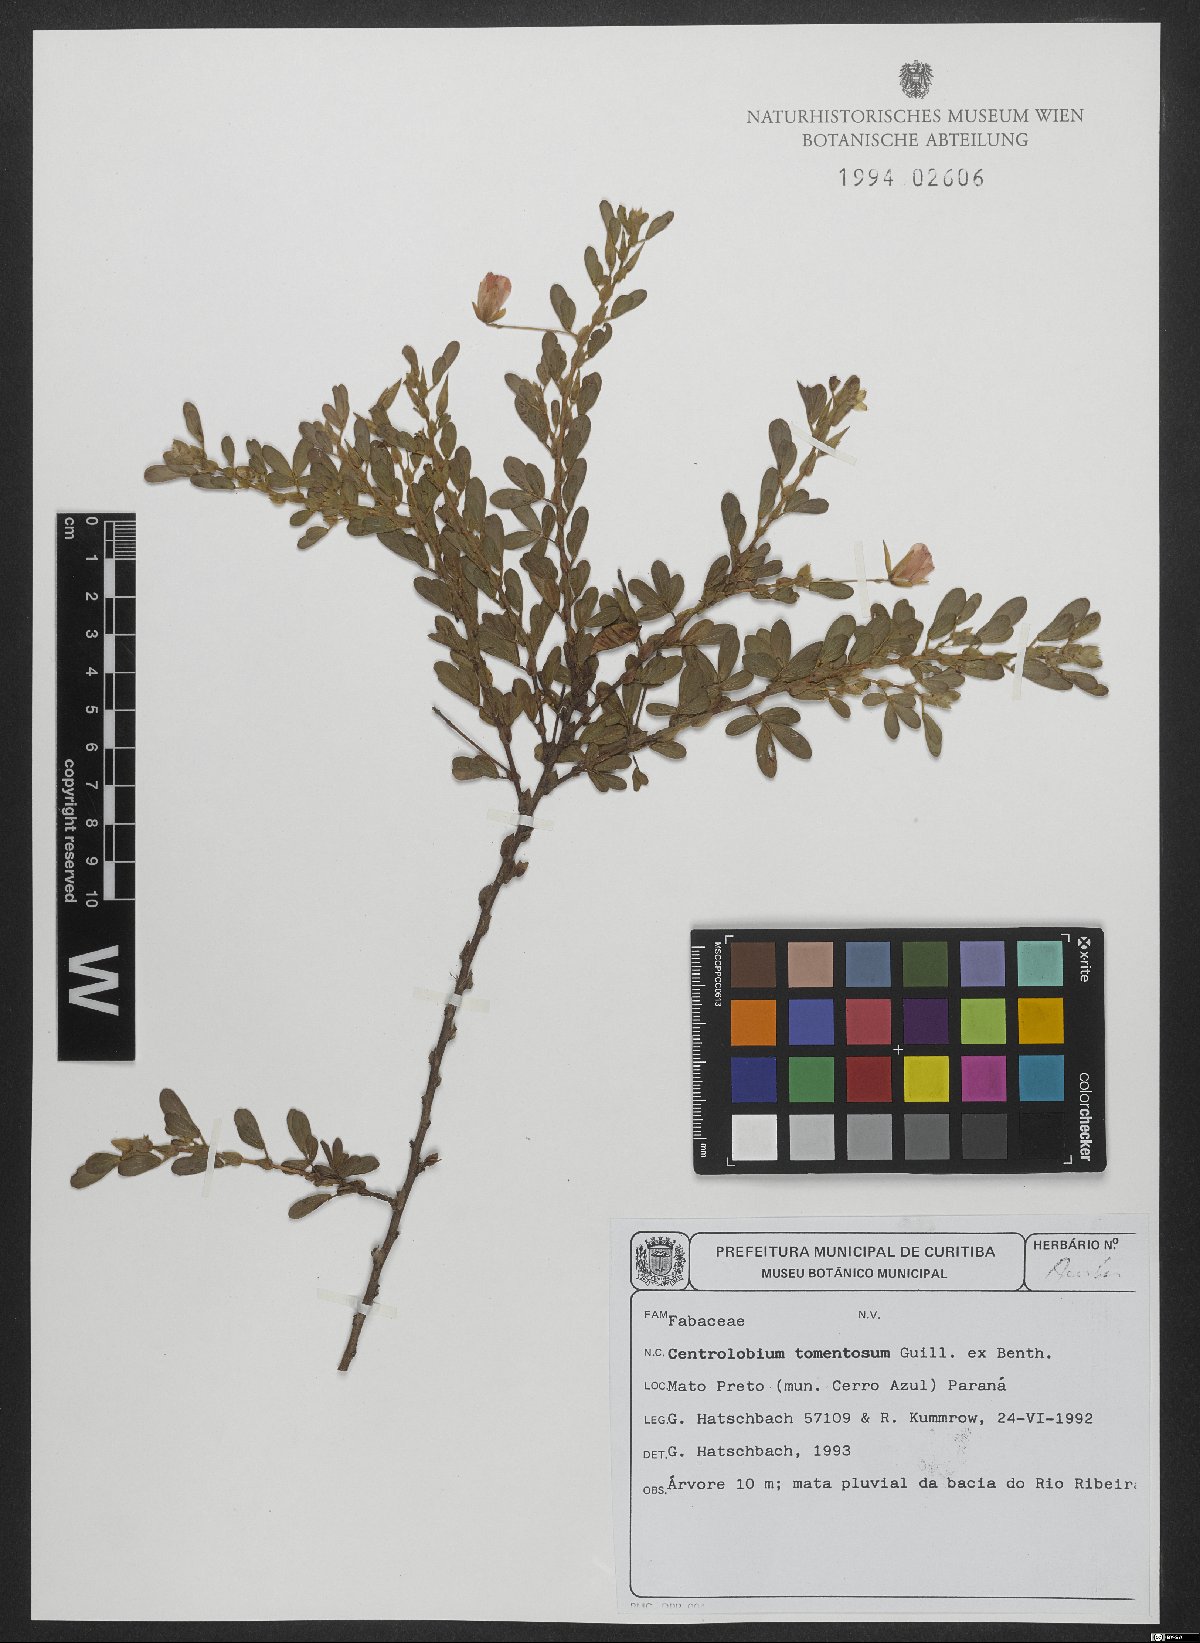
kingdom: Plantae
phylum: Tracheophyta
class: Magnoliopsida
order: Fabales
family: Fabaceae
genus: Centrolobium
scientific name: Centrolobium tomentosum
